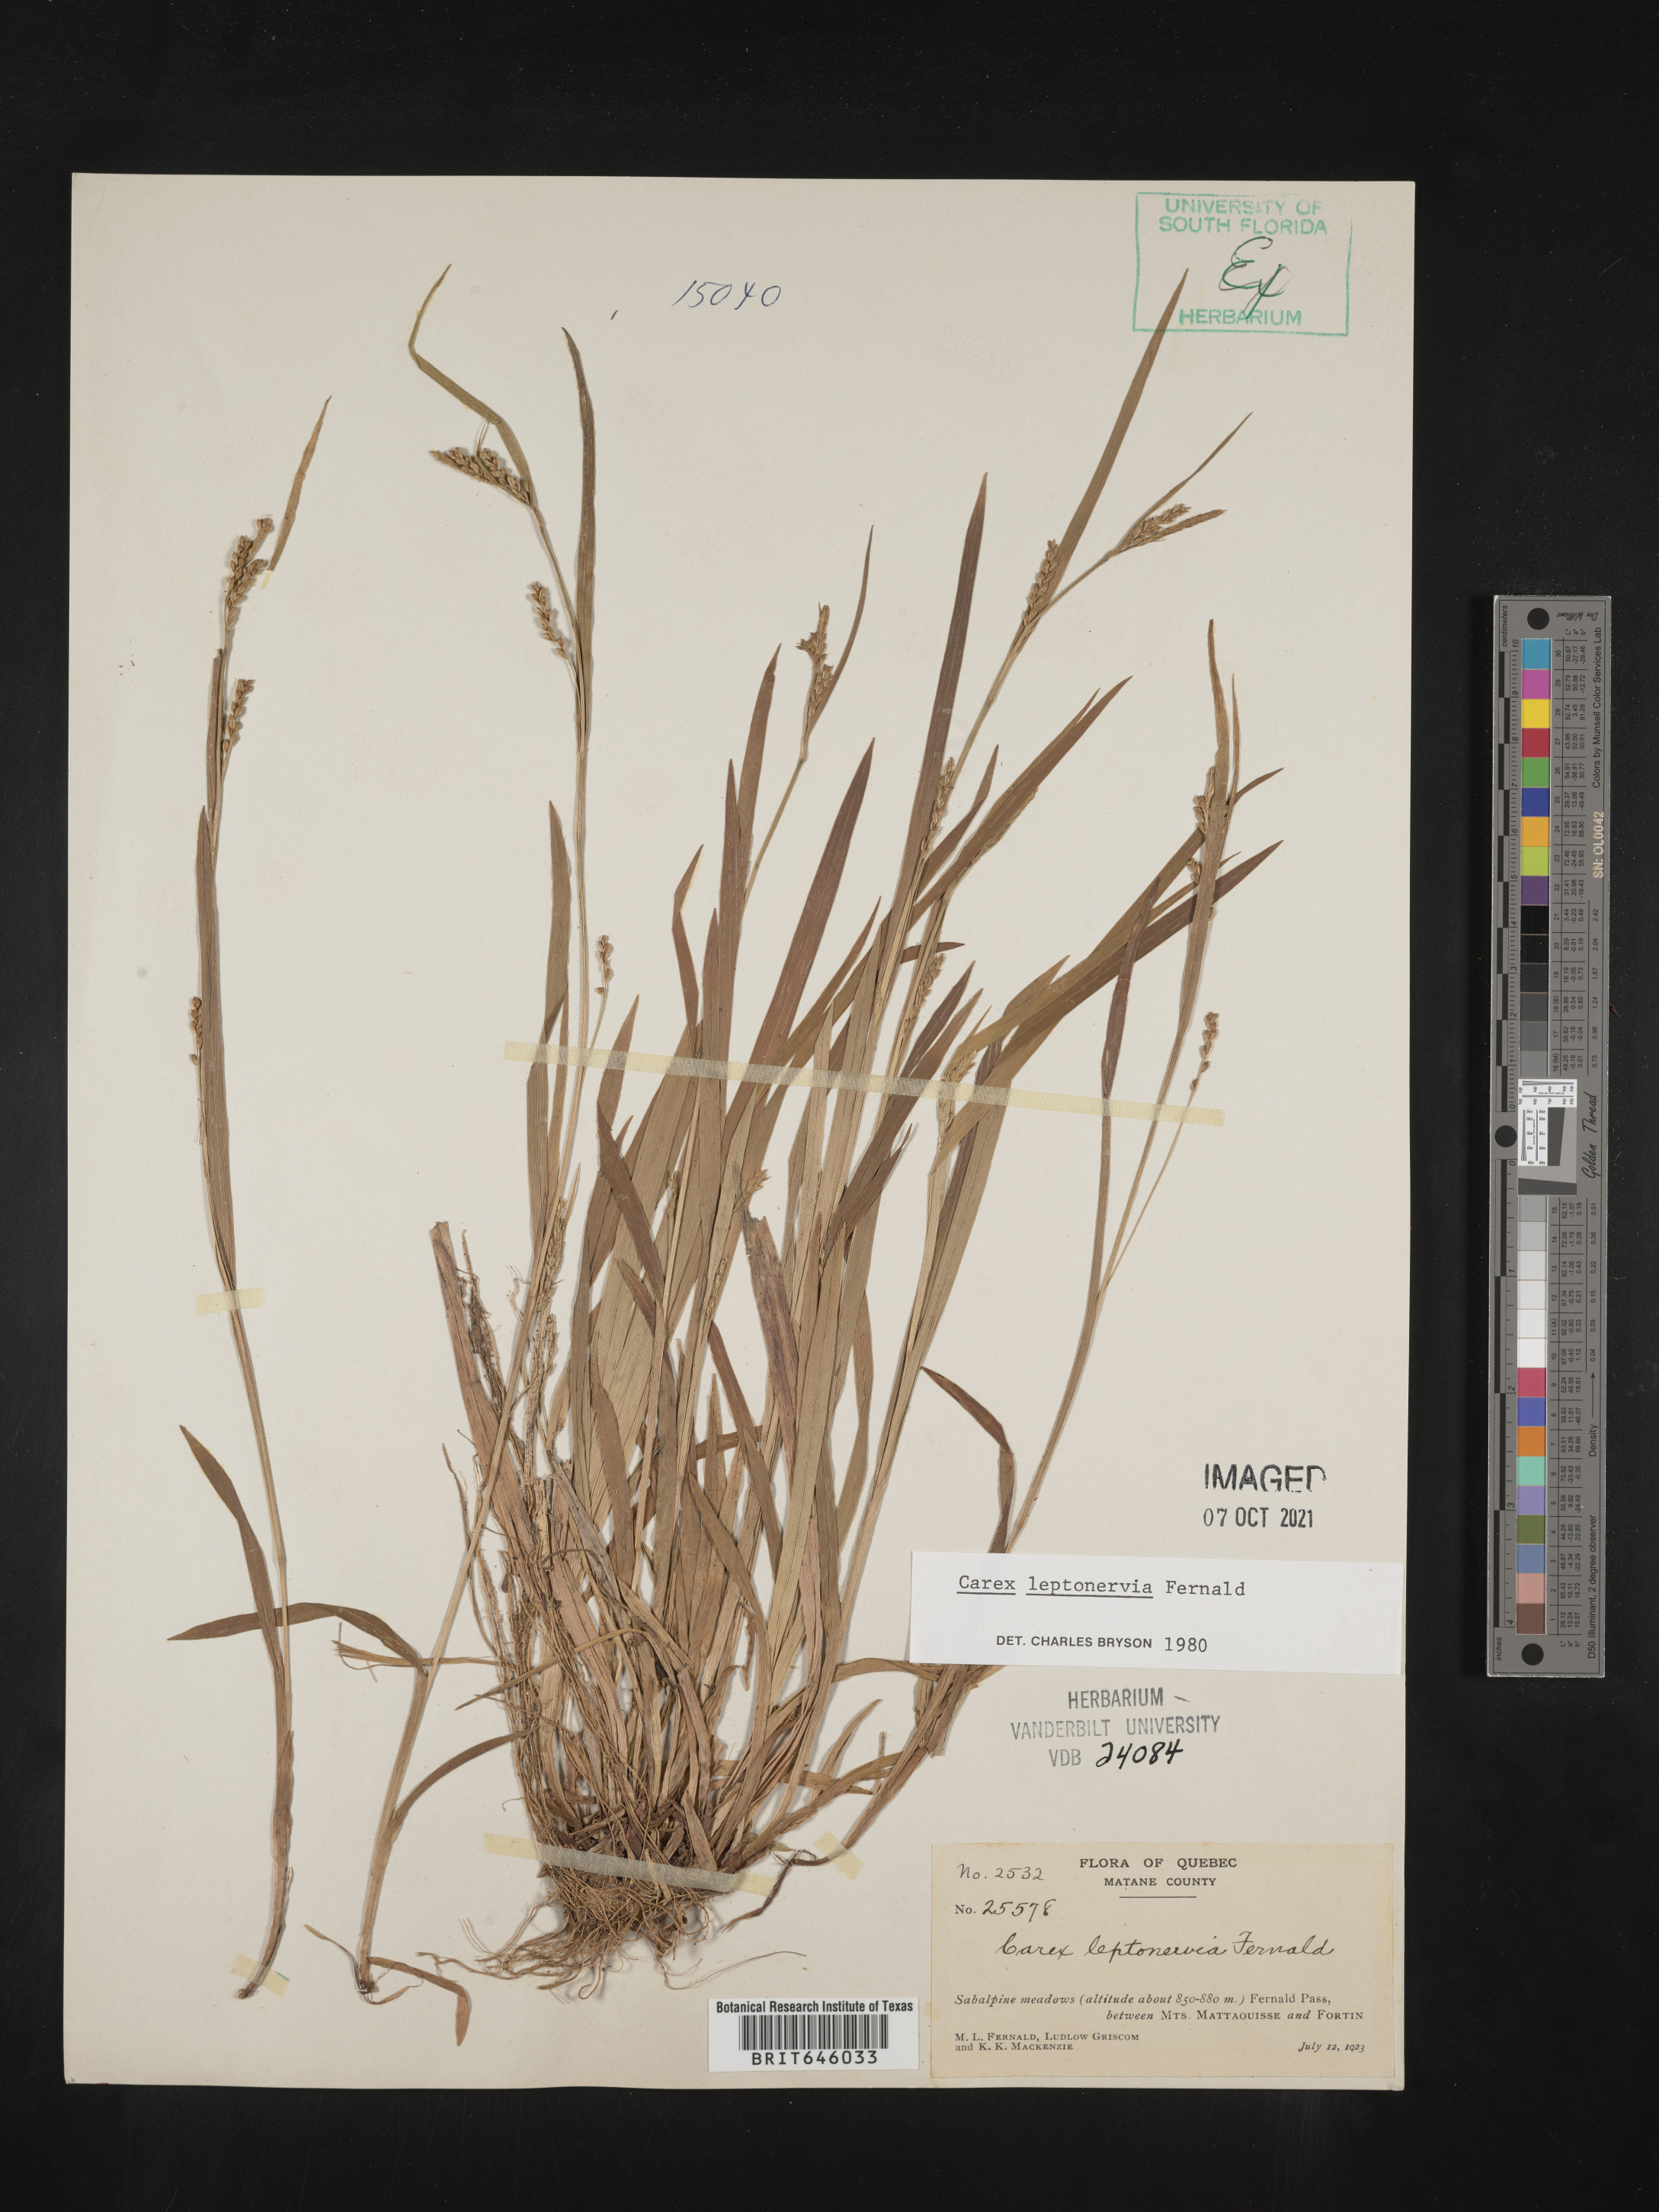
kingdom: Plantae
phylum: Tracheophyta
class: Liliopsida
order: Poales
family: Cyperaceae
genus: Carex
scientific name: Carex leptonervia
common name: Few-nerved wood sedge
